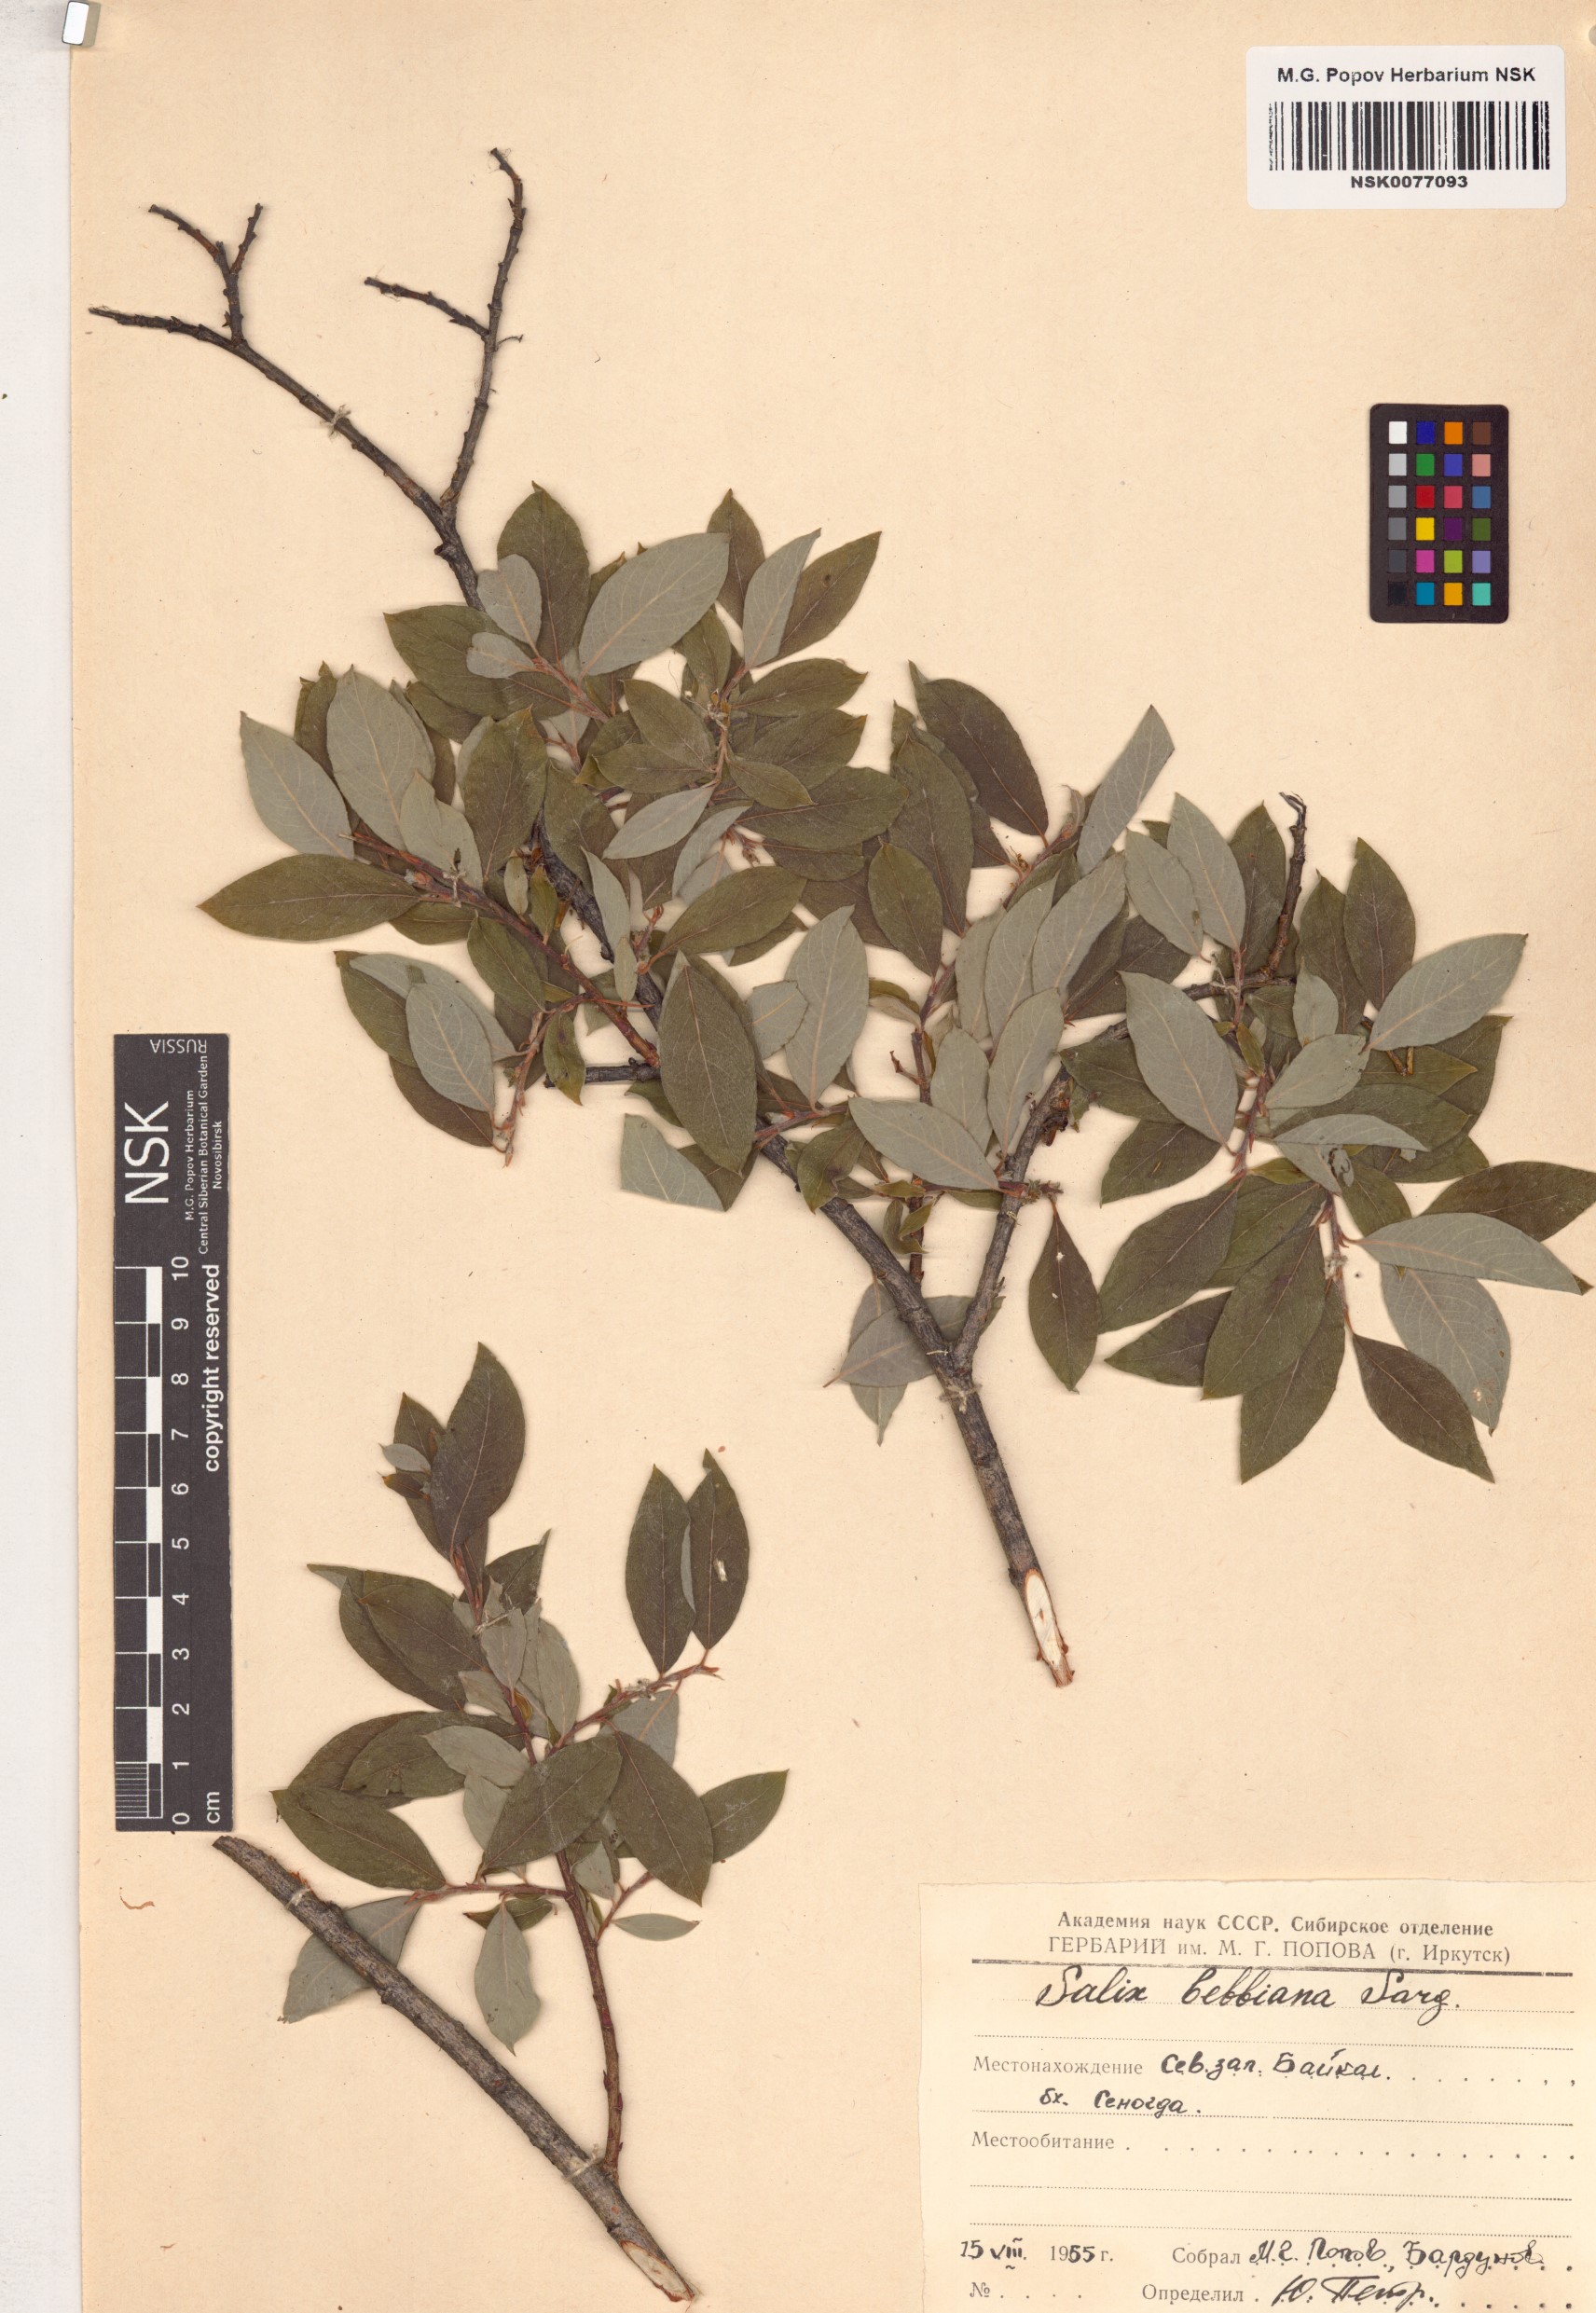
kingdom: Plantae
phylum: Tracheophyta
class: Magnoliopsida
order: Malpighiales
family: Salicaceae
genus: Salix
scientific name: Salix bebbiana
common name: Bebb's willow
